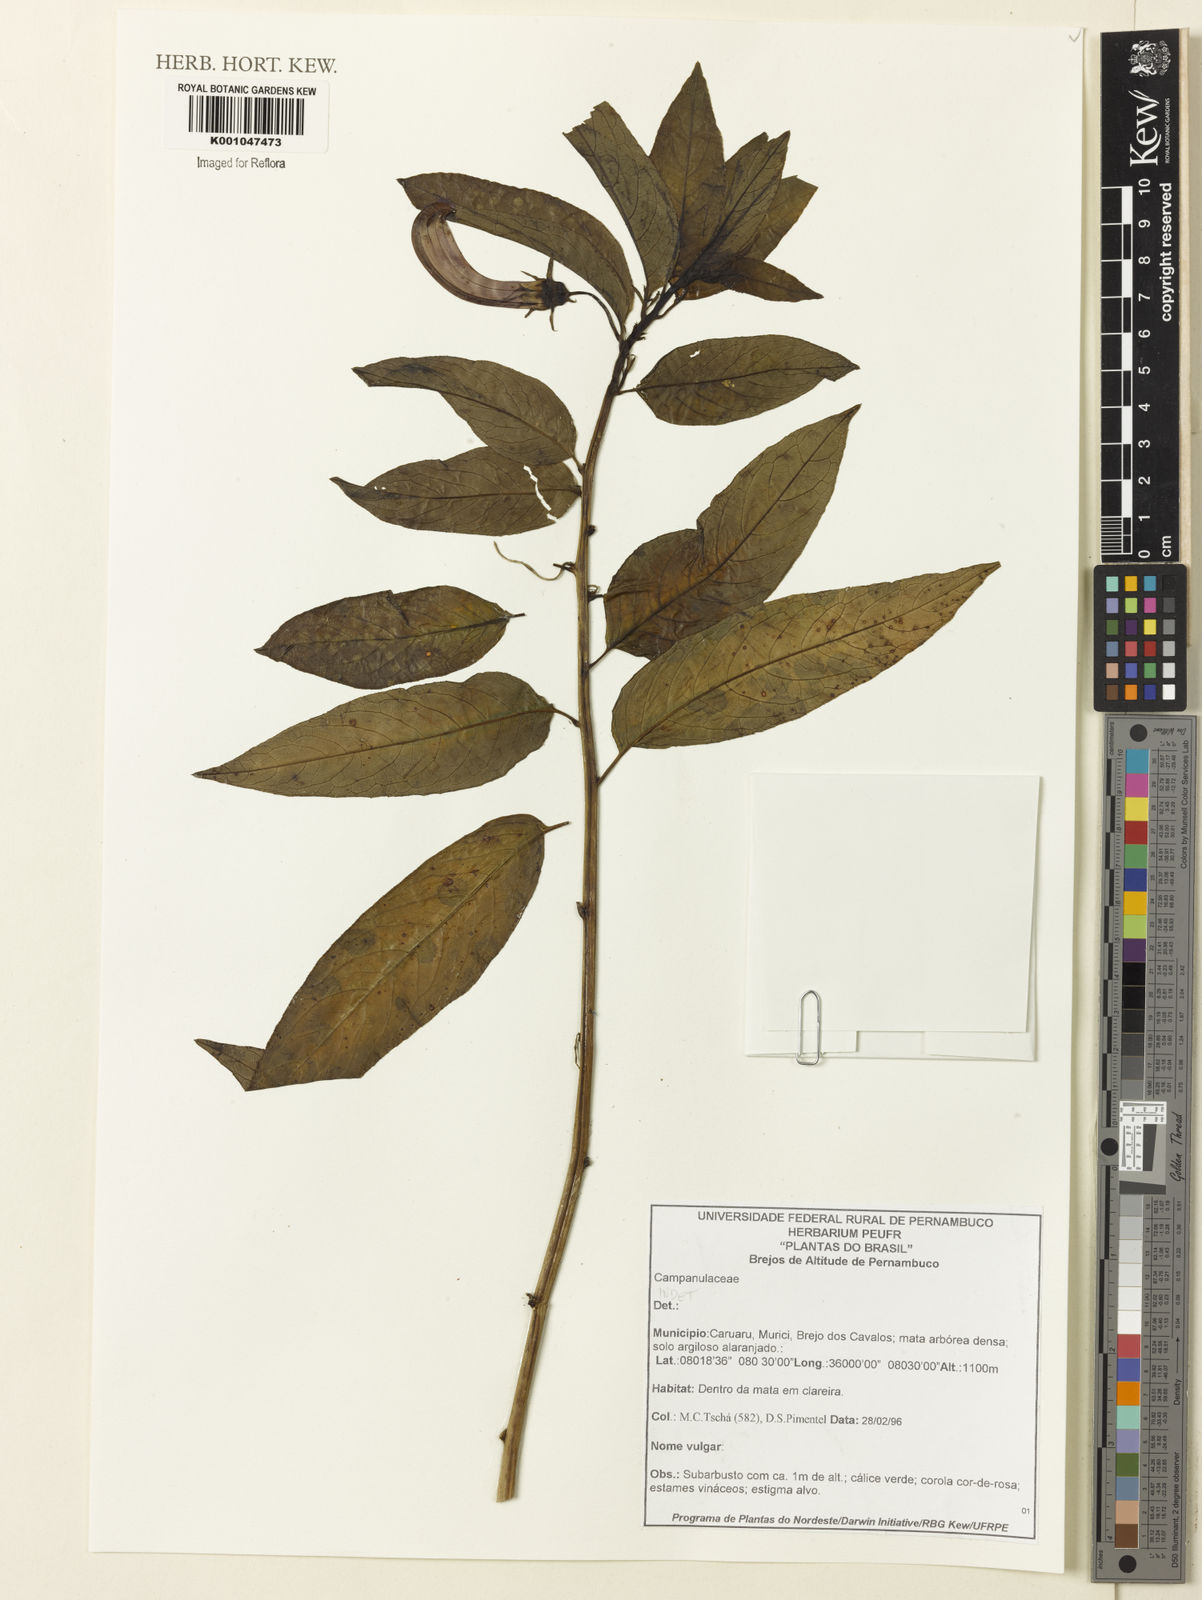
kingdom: Plantae
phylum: Tracheophyta
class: Magnoliopsida
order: Asterales
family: Campanulaceae
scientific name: Campanulaceae
